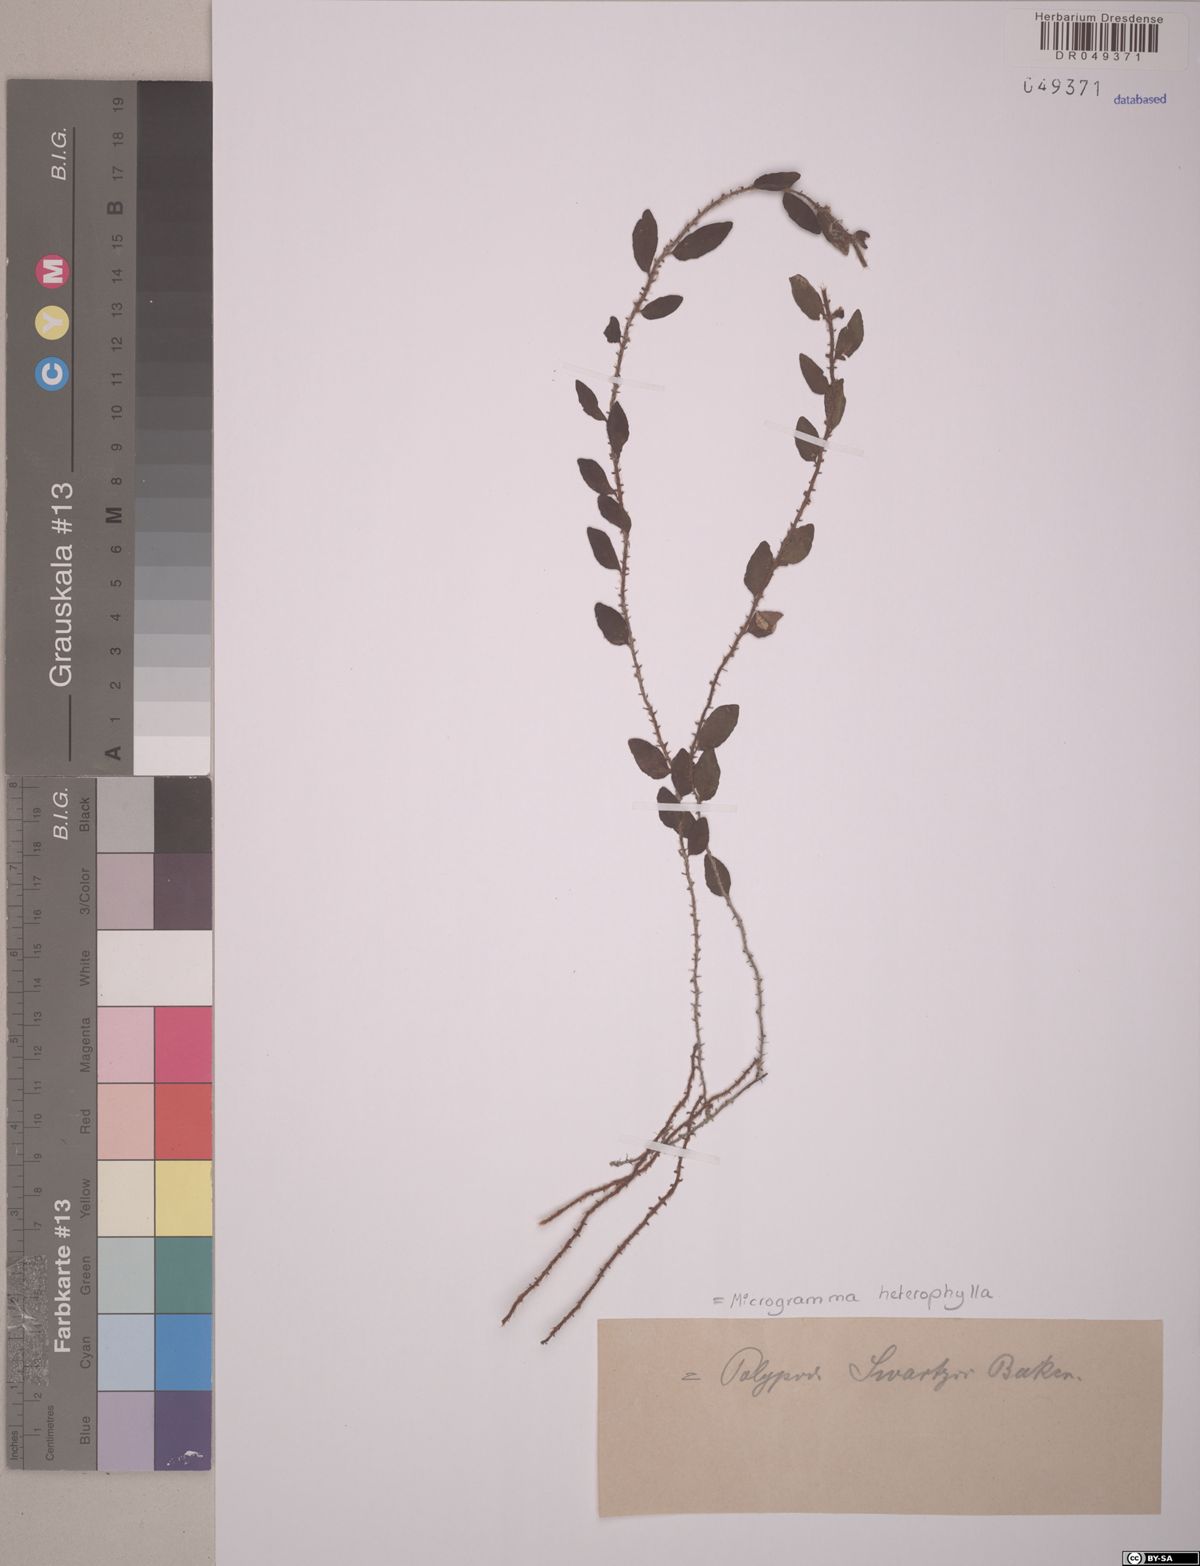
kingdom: Plantae
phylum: Tracheophyta
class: Polypodiopsida
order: Polypodiales
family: Polypodiaceae
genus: Microgramma
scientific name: Microgramma heterophylla
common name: Clinging snakefern
